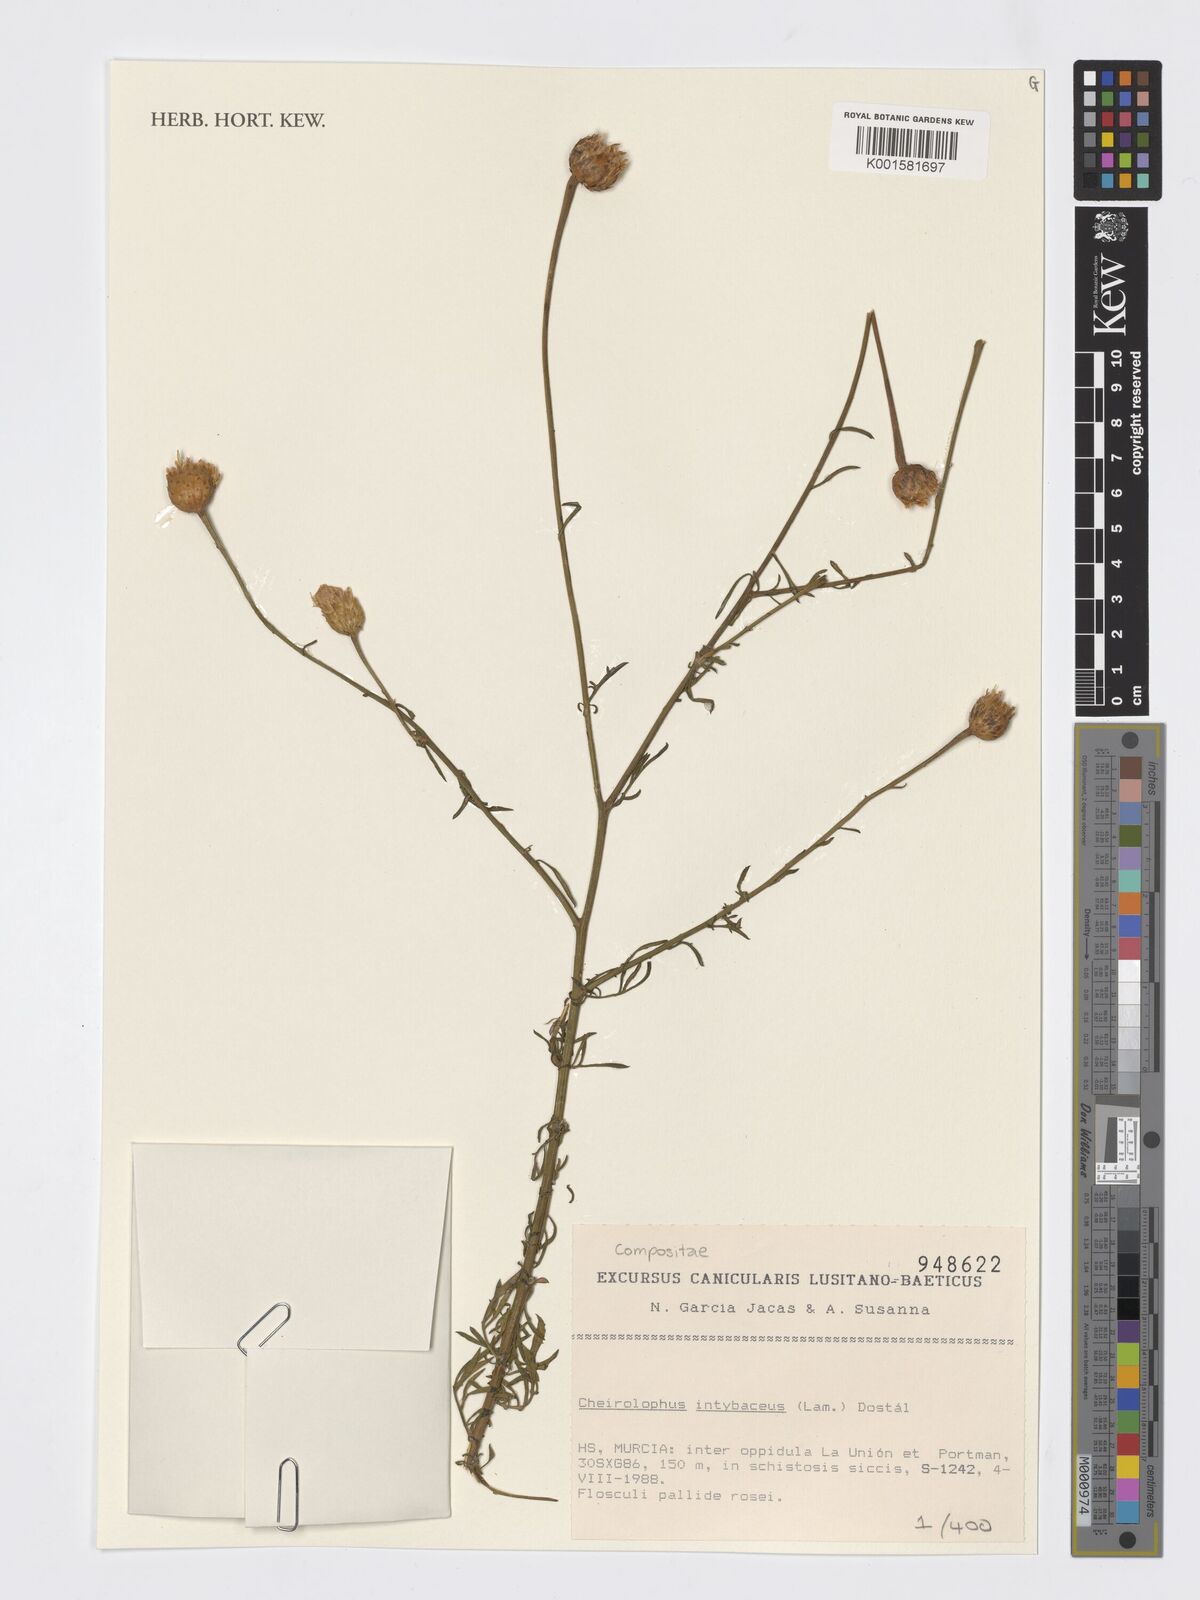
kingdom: Plantae
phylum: Tracheophyta
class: Magnoliopsida
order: Asterales
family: Asteraceae
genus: Cheirolophus
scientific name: Cheirolophus intybaceus
